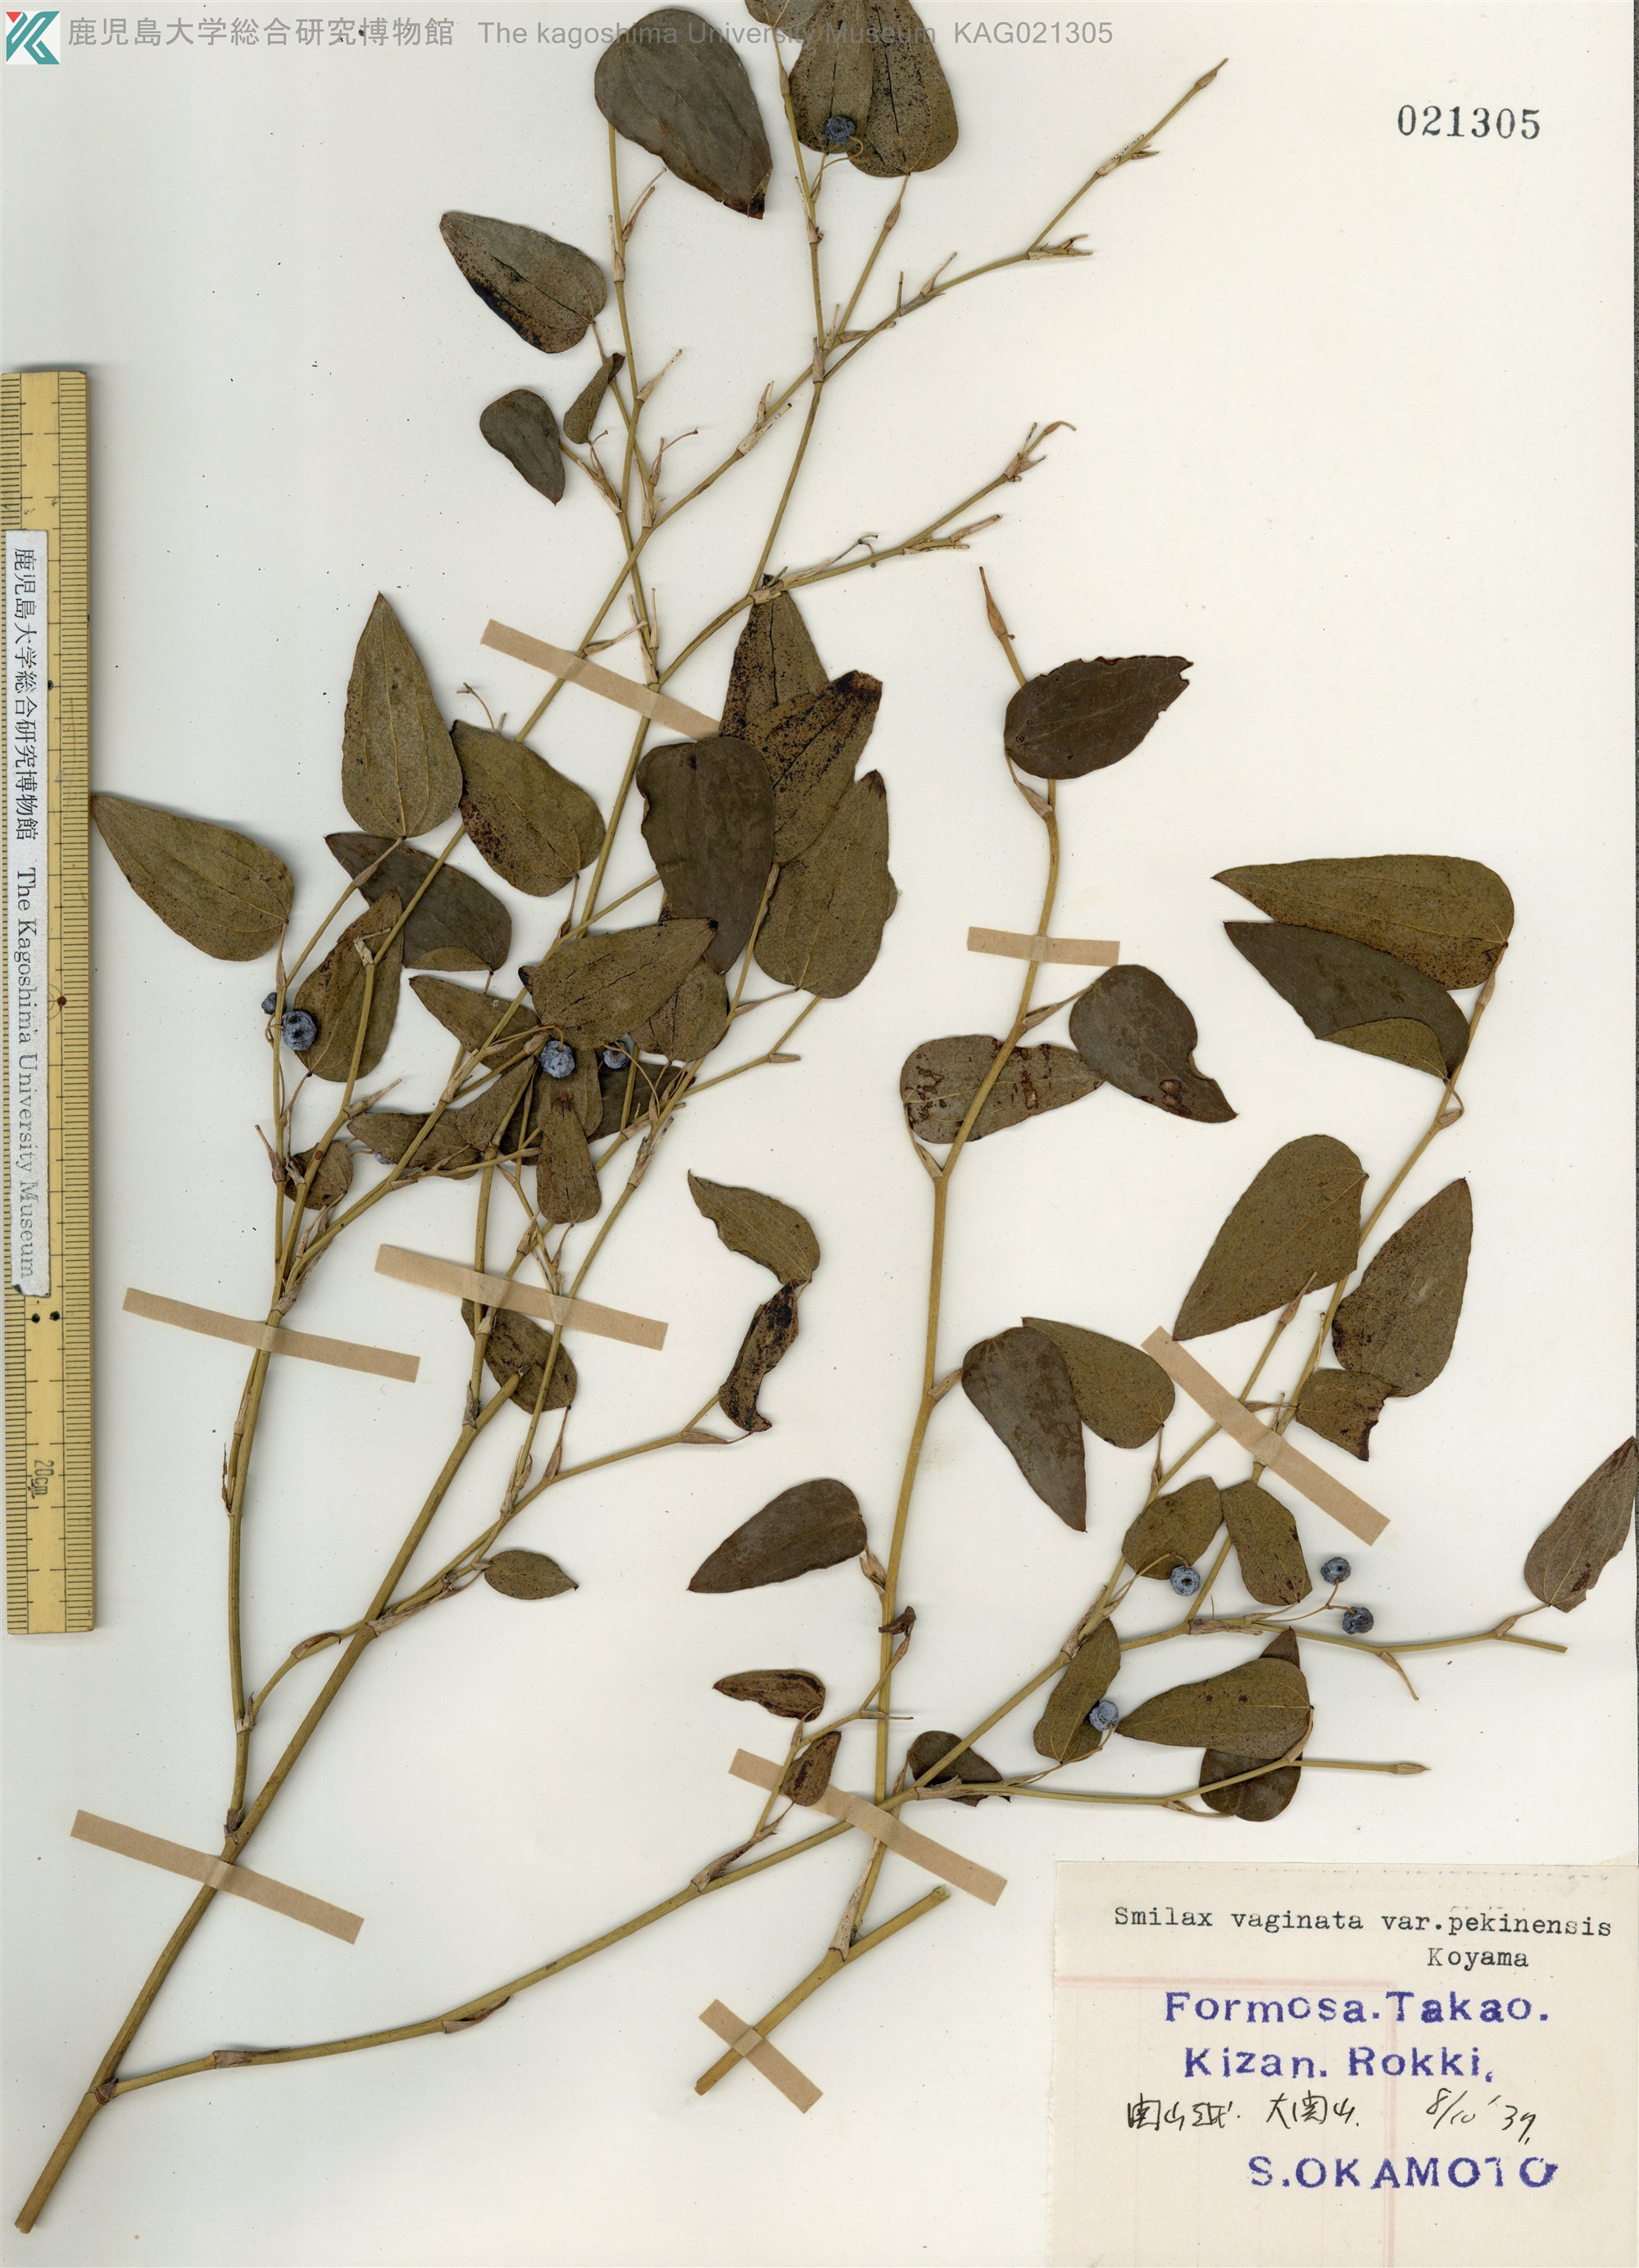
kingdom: Plantae
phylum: Tracheophyta
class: Liliopsida
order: Liliales
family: Smilacaceae
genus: Smilax
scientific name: Smilax vaginata
